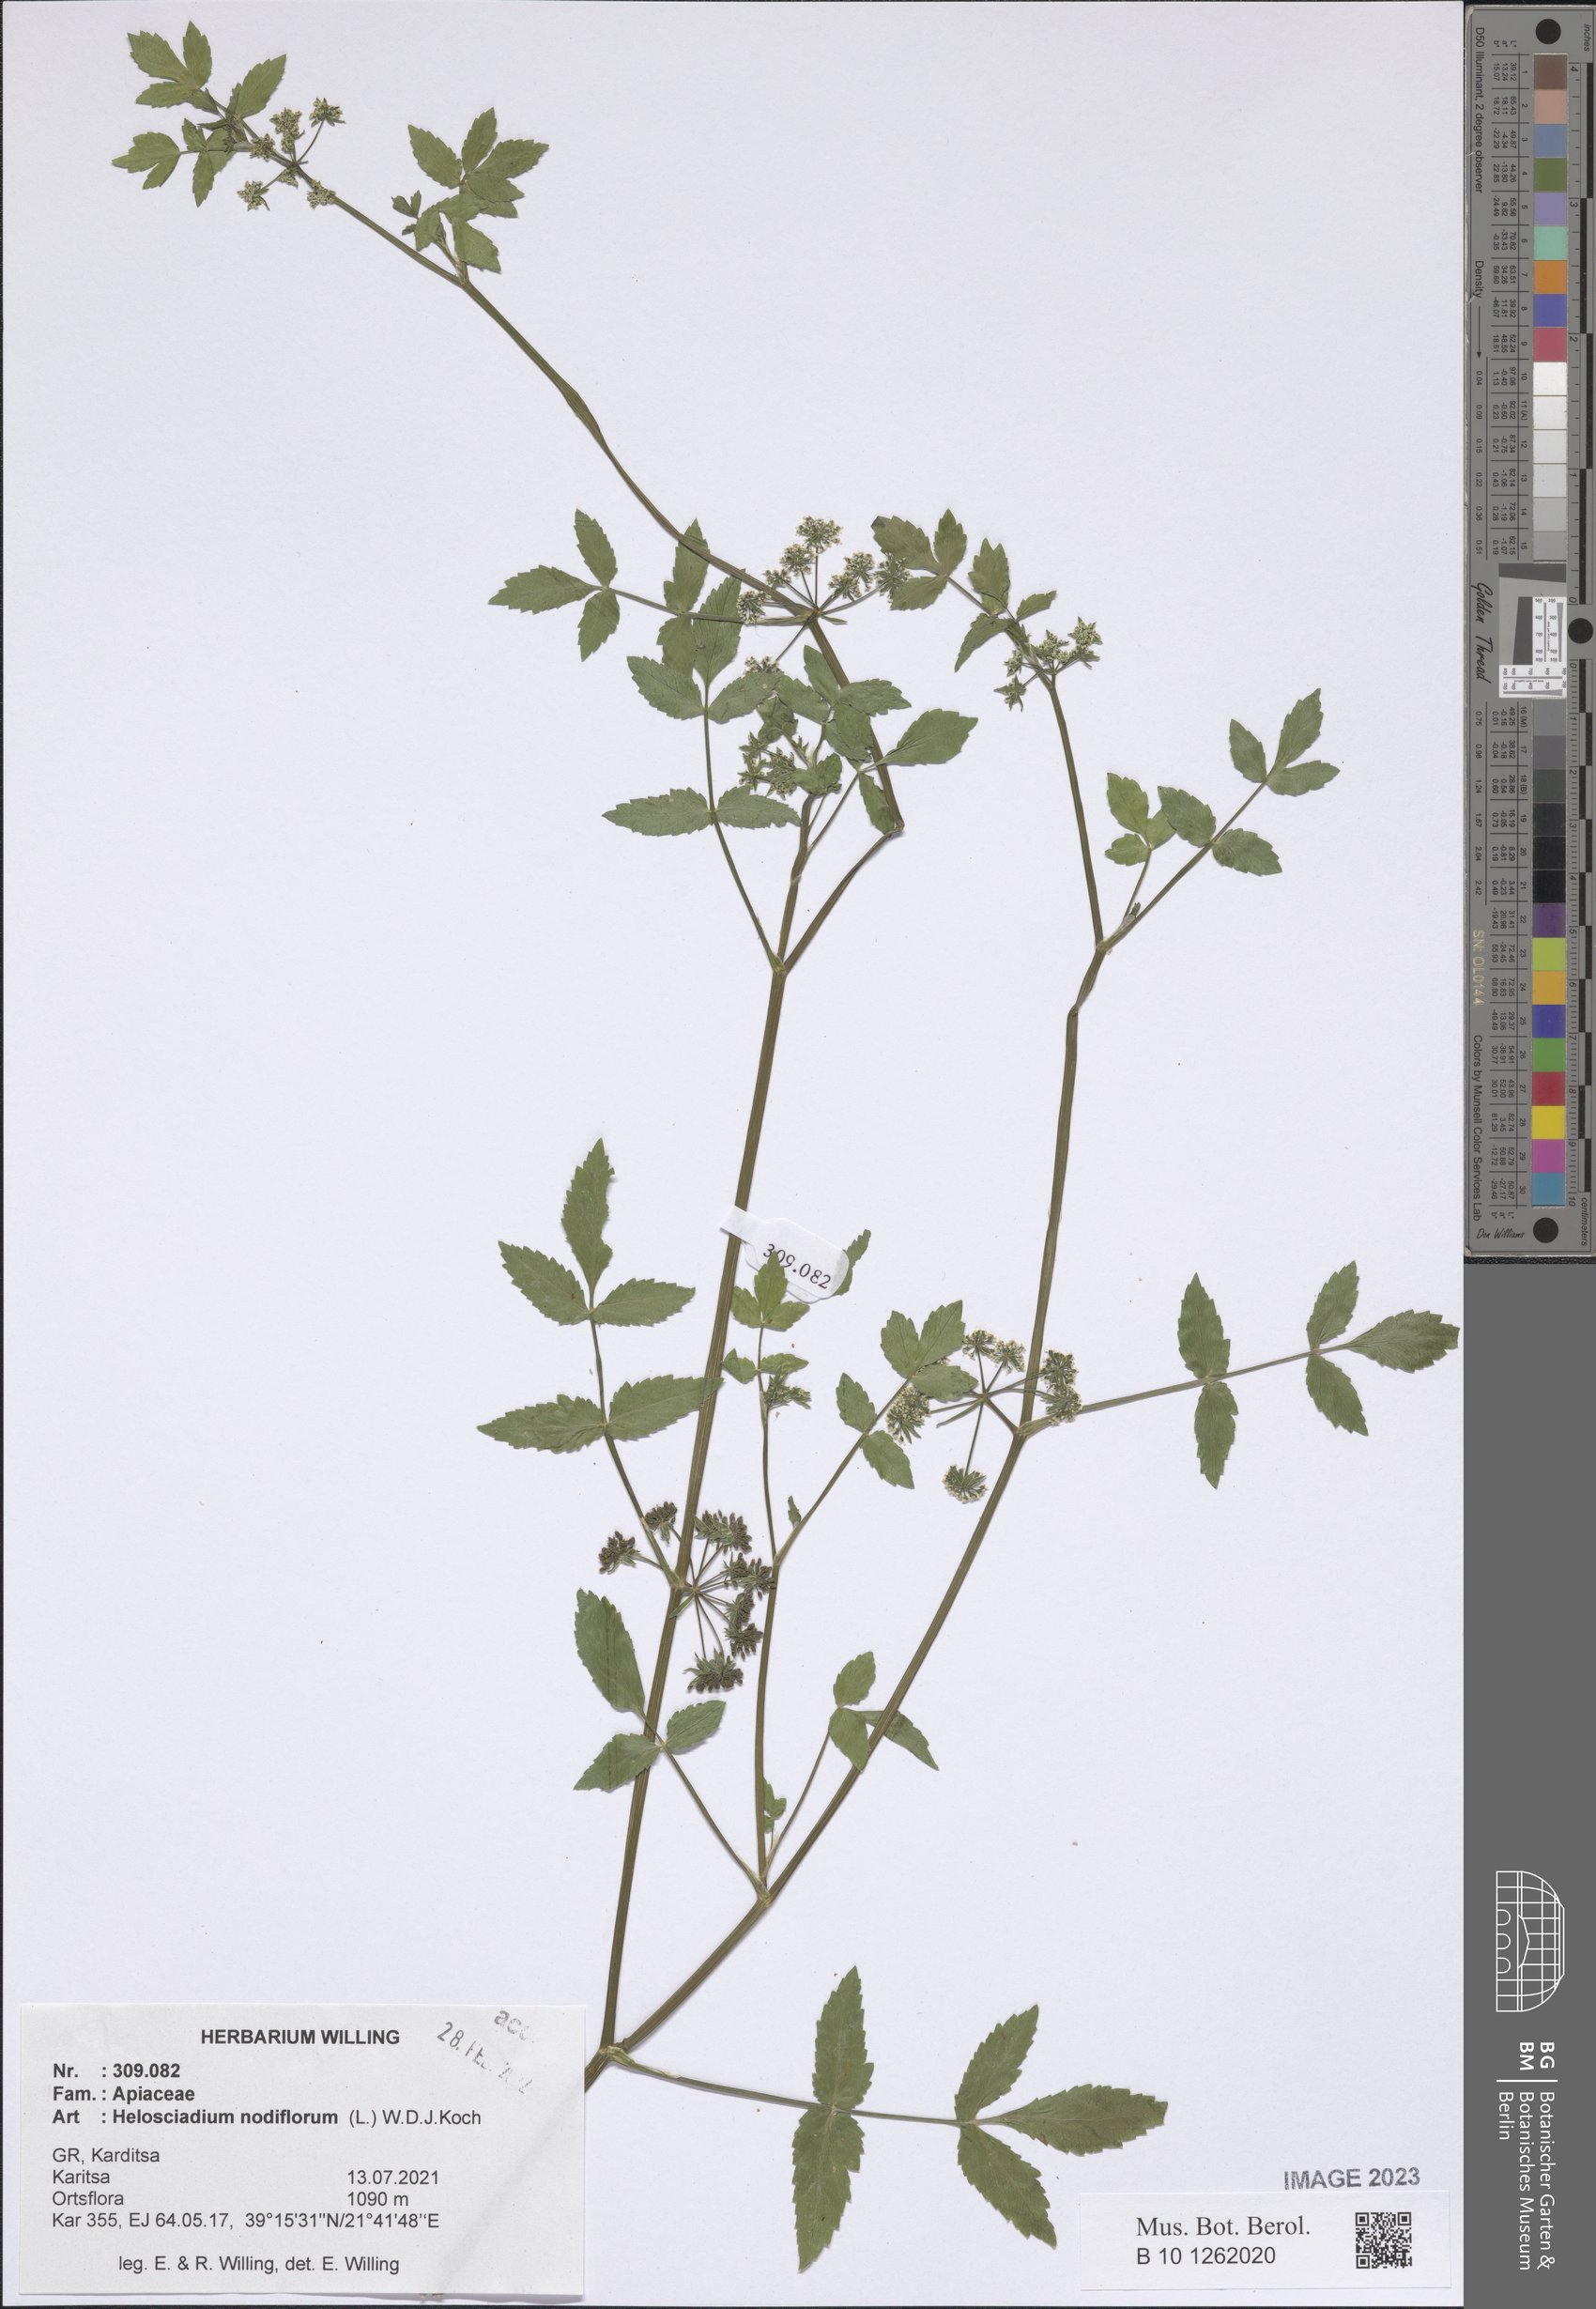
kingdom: Plantae
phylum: Tracheophyta
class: Magnoliopsida
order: Apiales
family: Apiaceae
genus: Helosciadium
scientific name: Helosciadium nodiflorum
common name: Fool's-watercress
